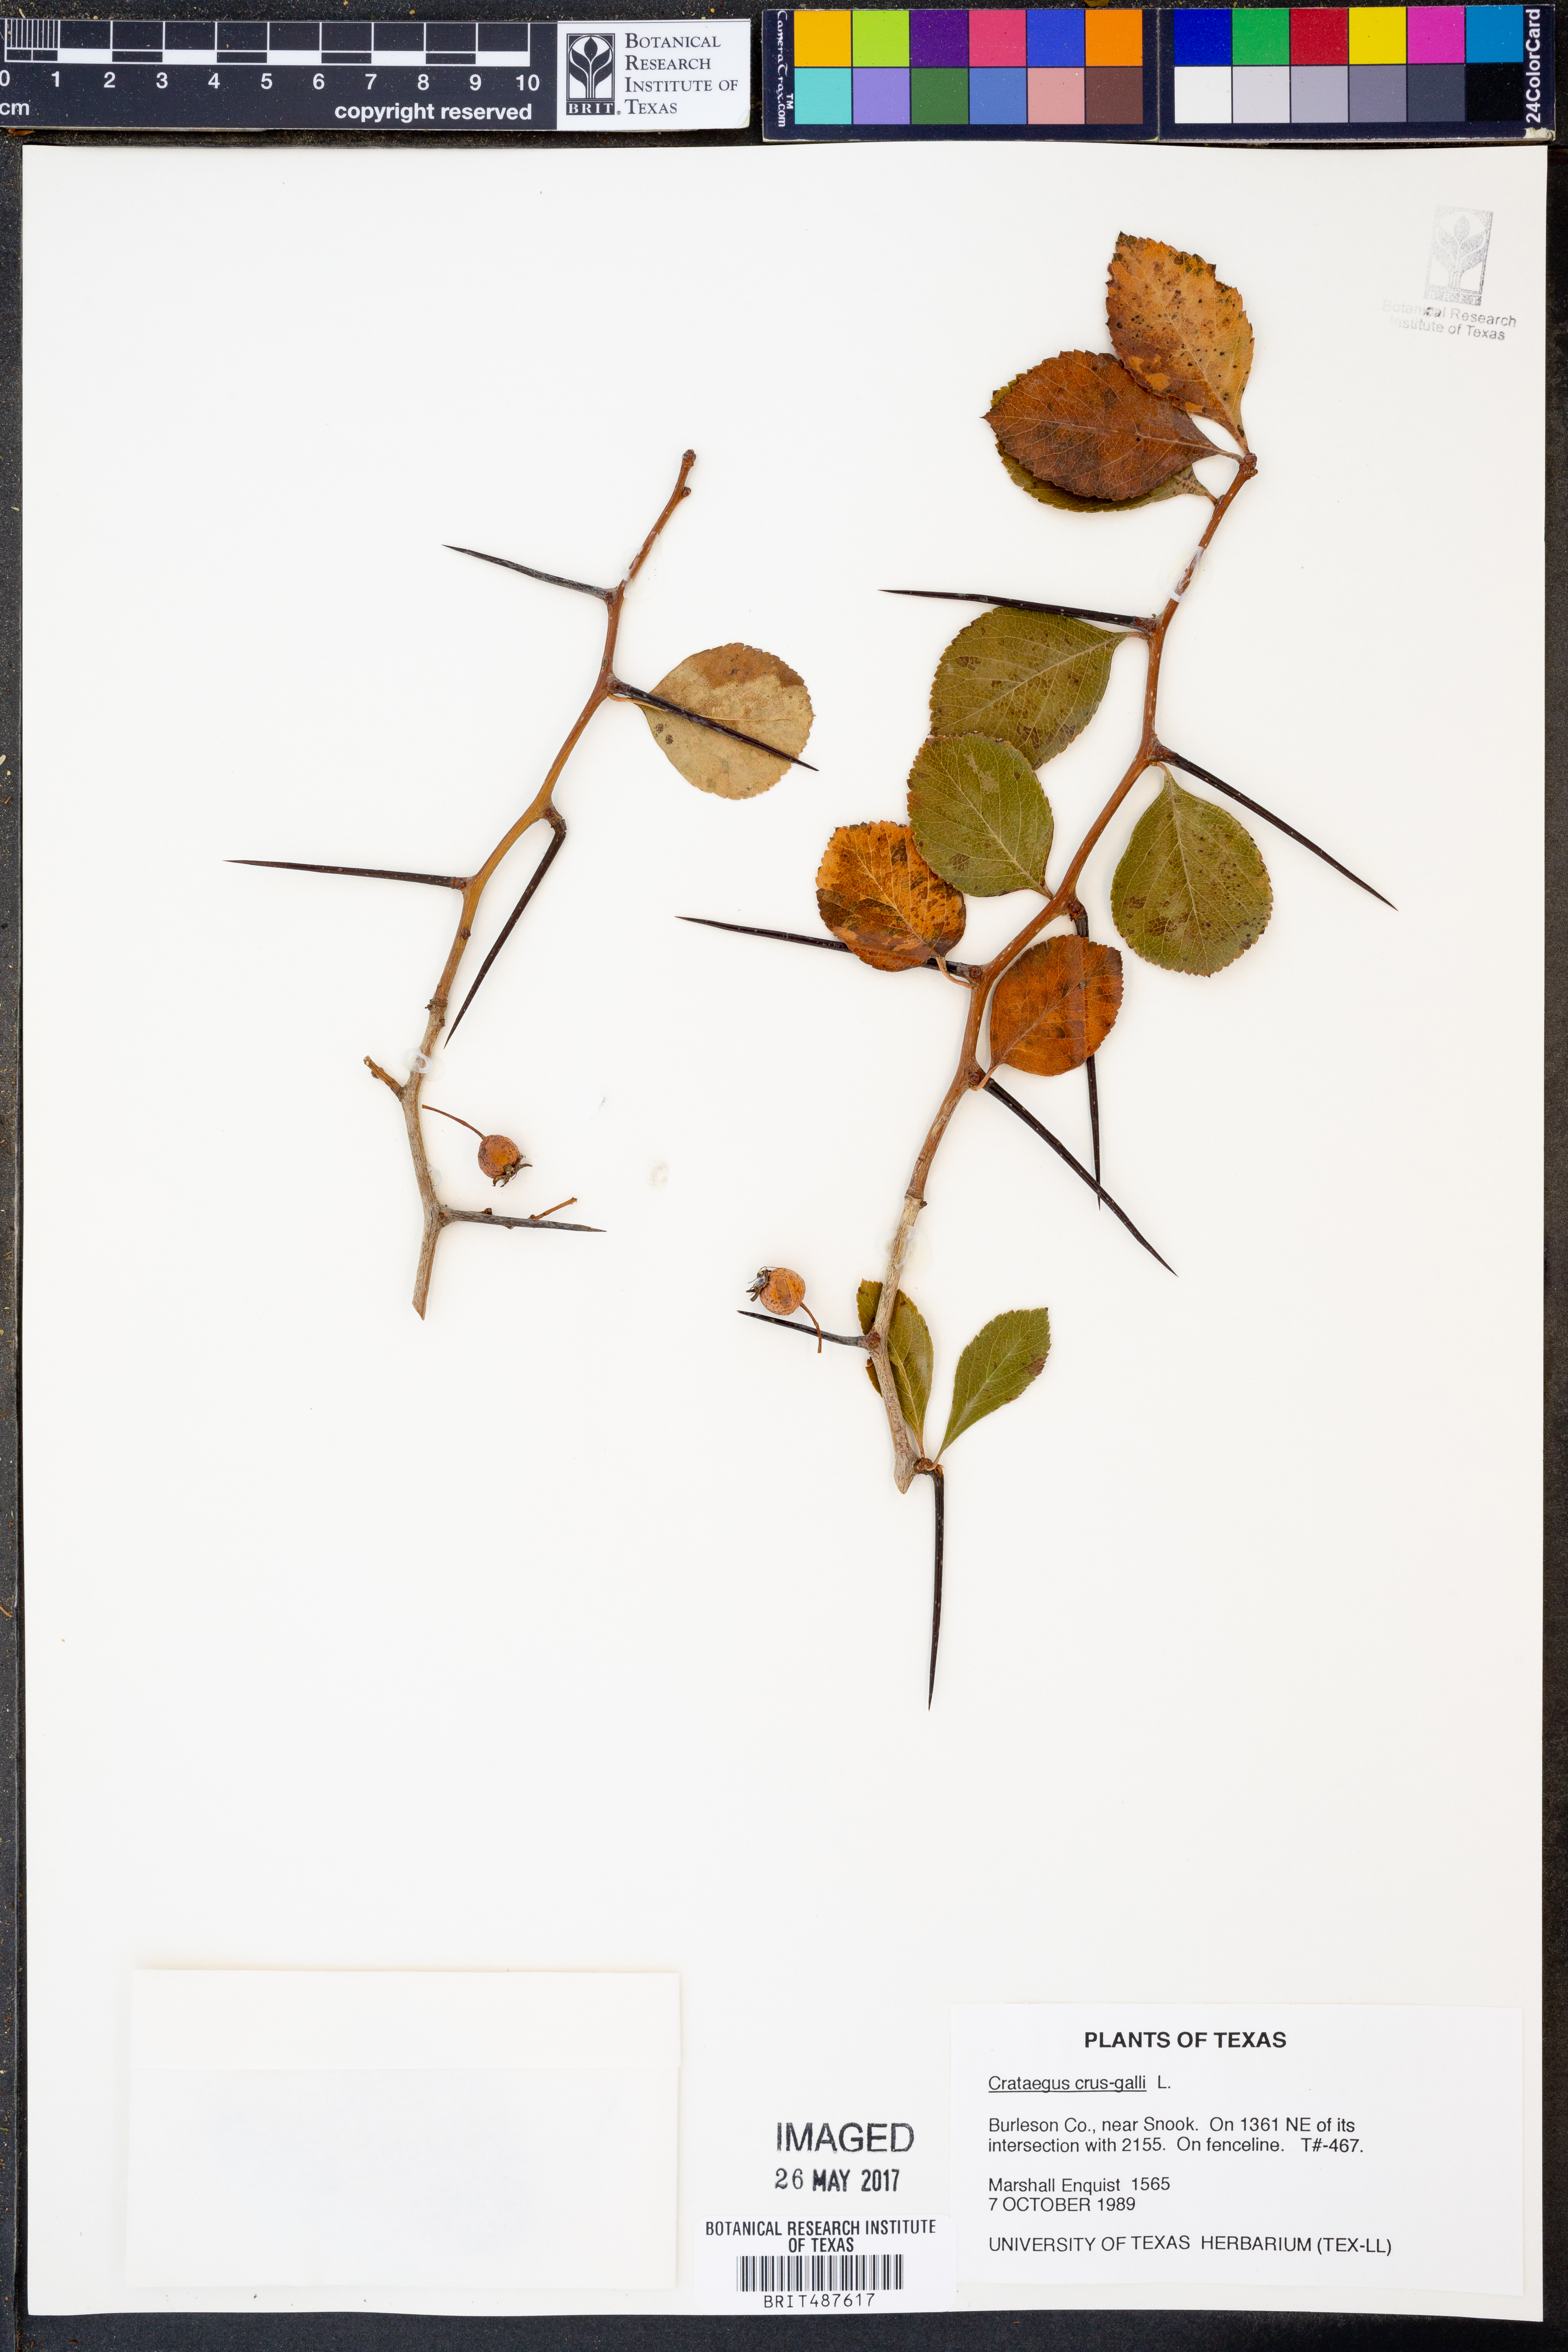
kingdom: Plantae
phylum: Tracheophyta
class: Magnoliopsida
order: Rosales
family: Rosaceae
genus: Crataegus
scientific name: Crataegus crus-galli
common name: Cockspurthorn
